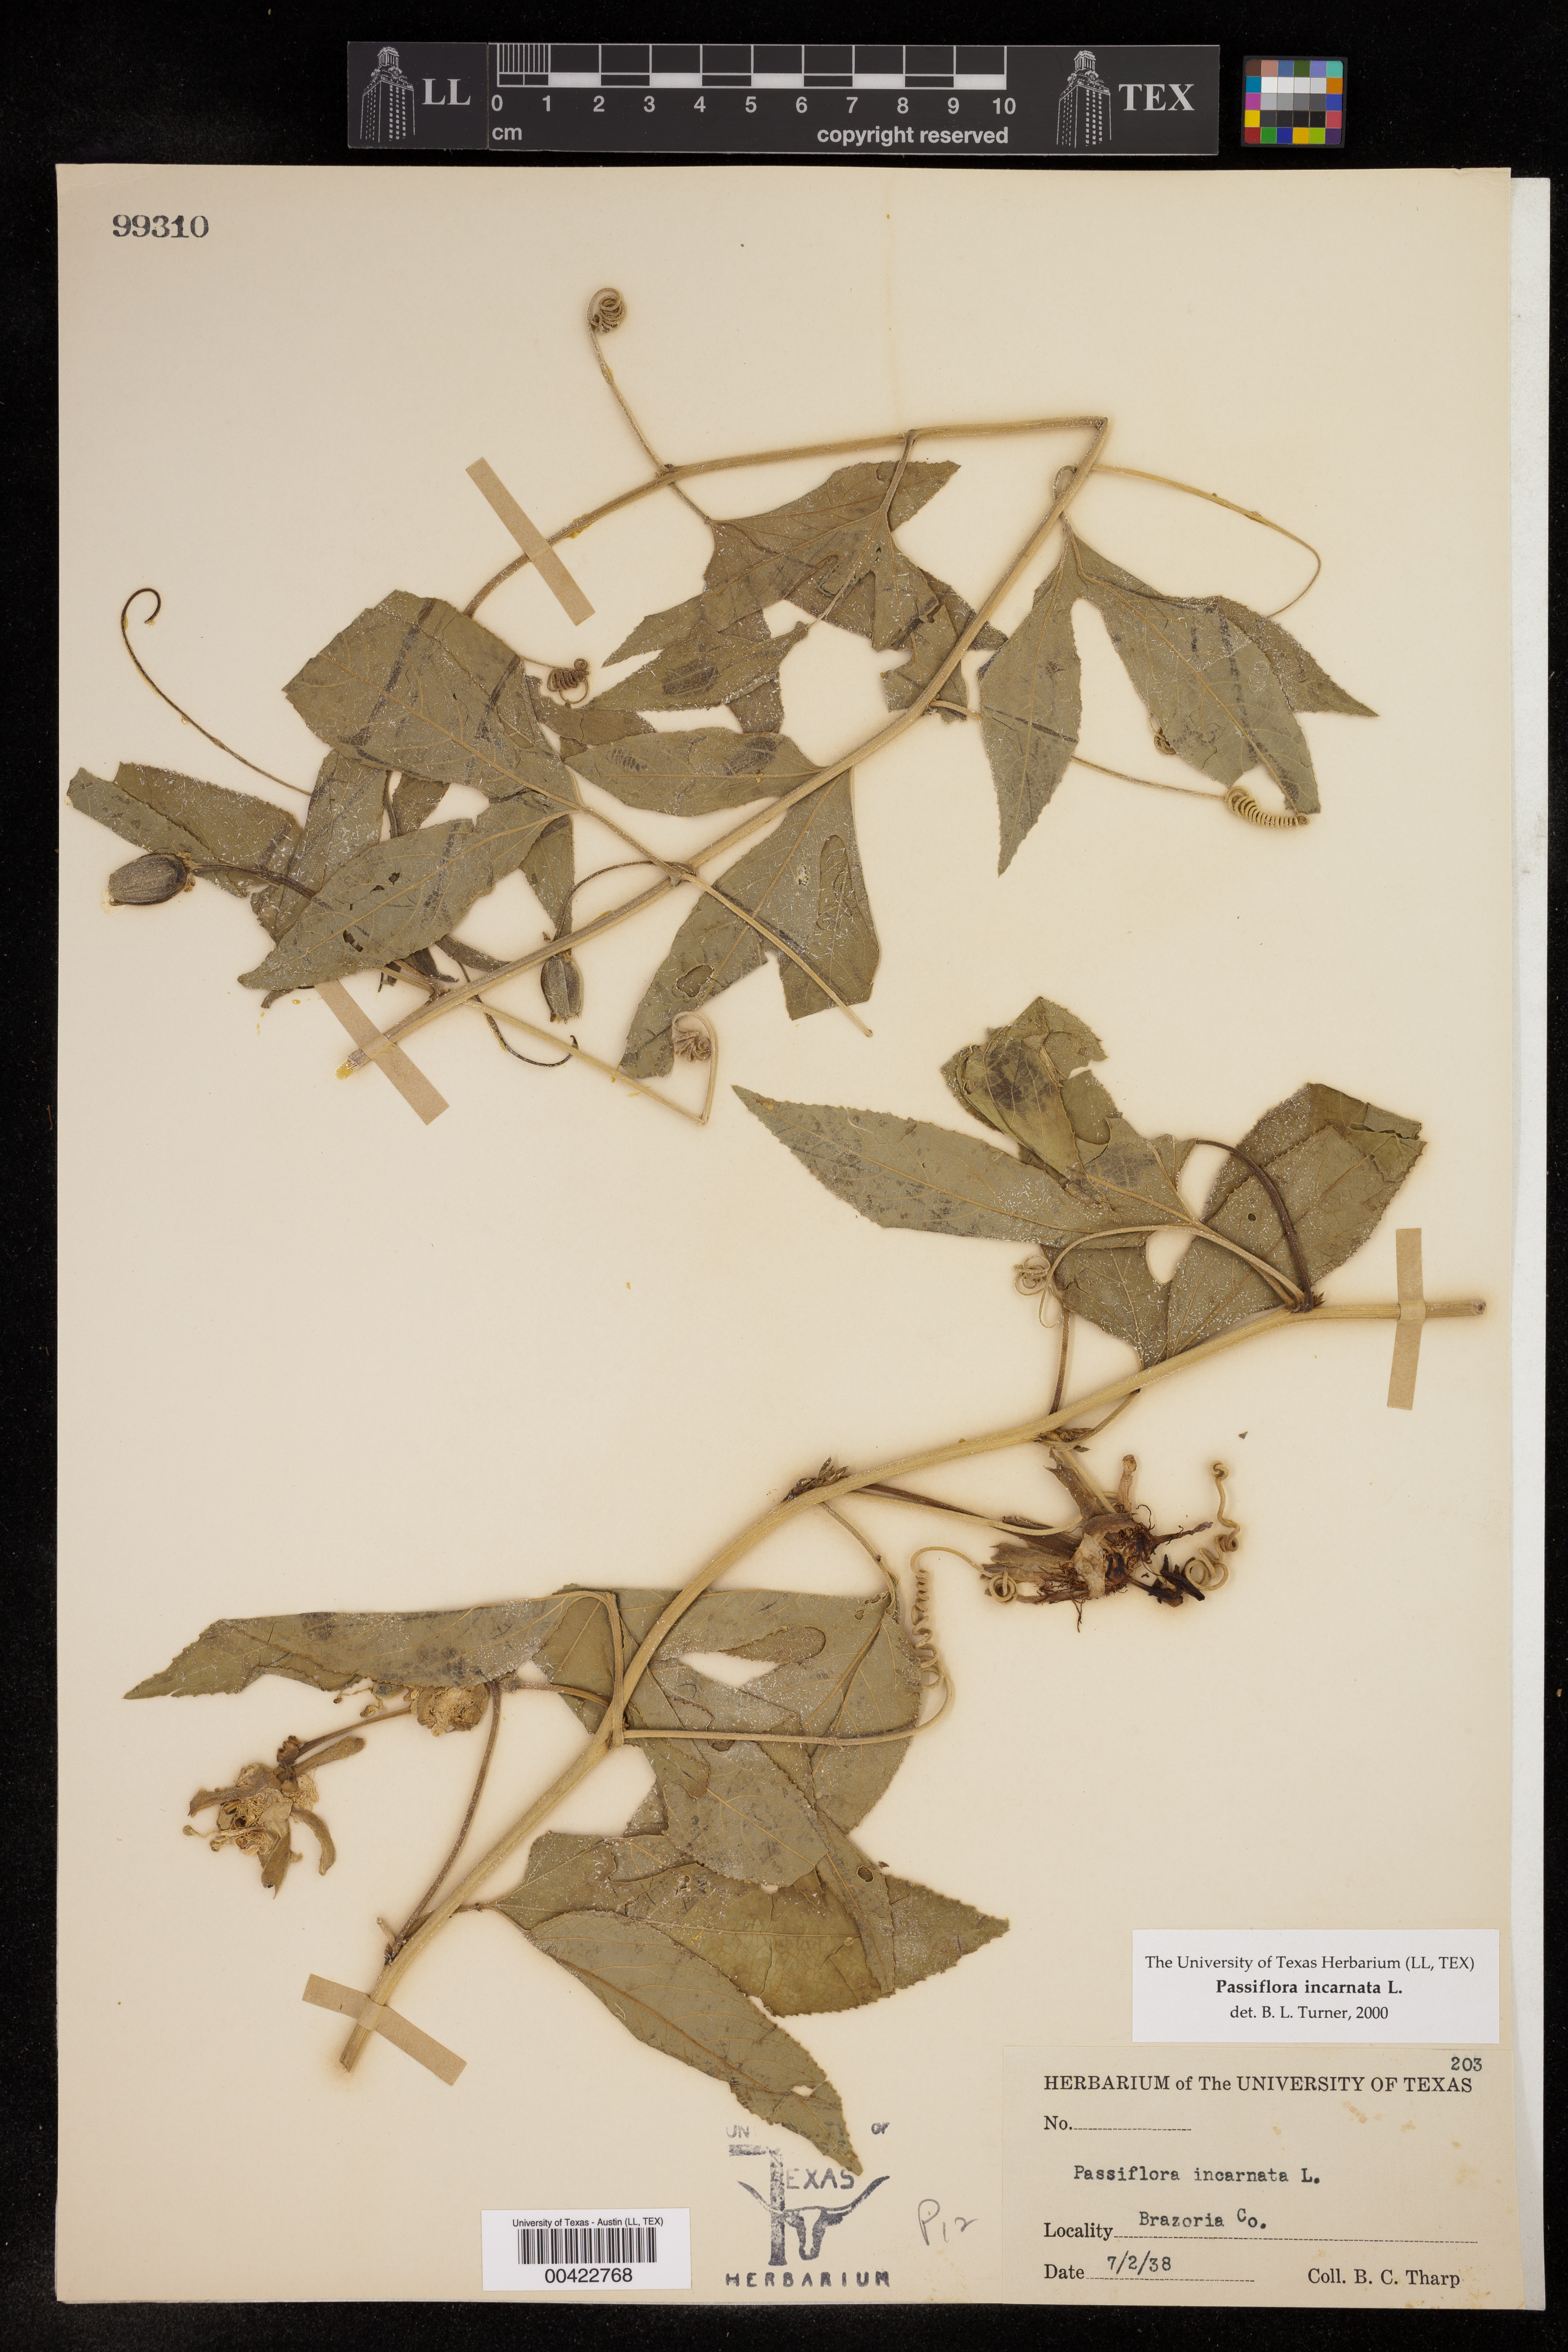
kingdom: Plantae
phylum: Tracheophyta
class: Magnoliopsida
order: Malpighiales
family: Passifloraceae
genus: Passiflora
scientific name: Passiflora incarnata
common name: Apricot-vine
